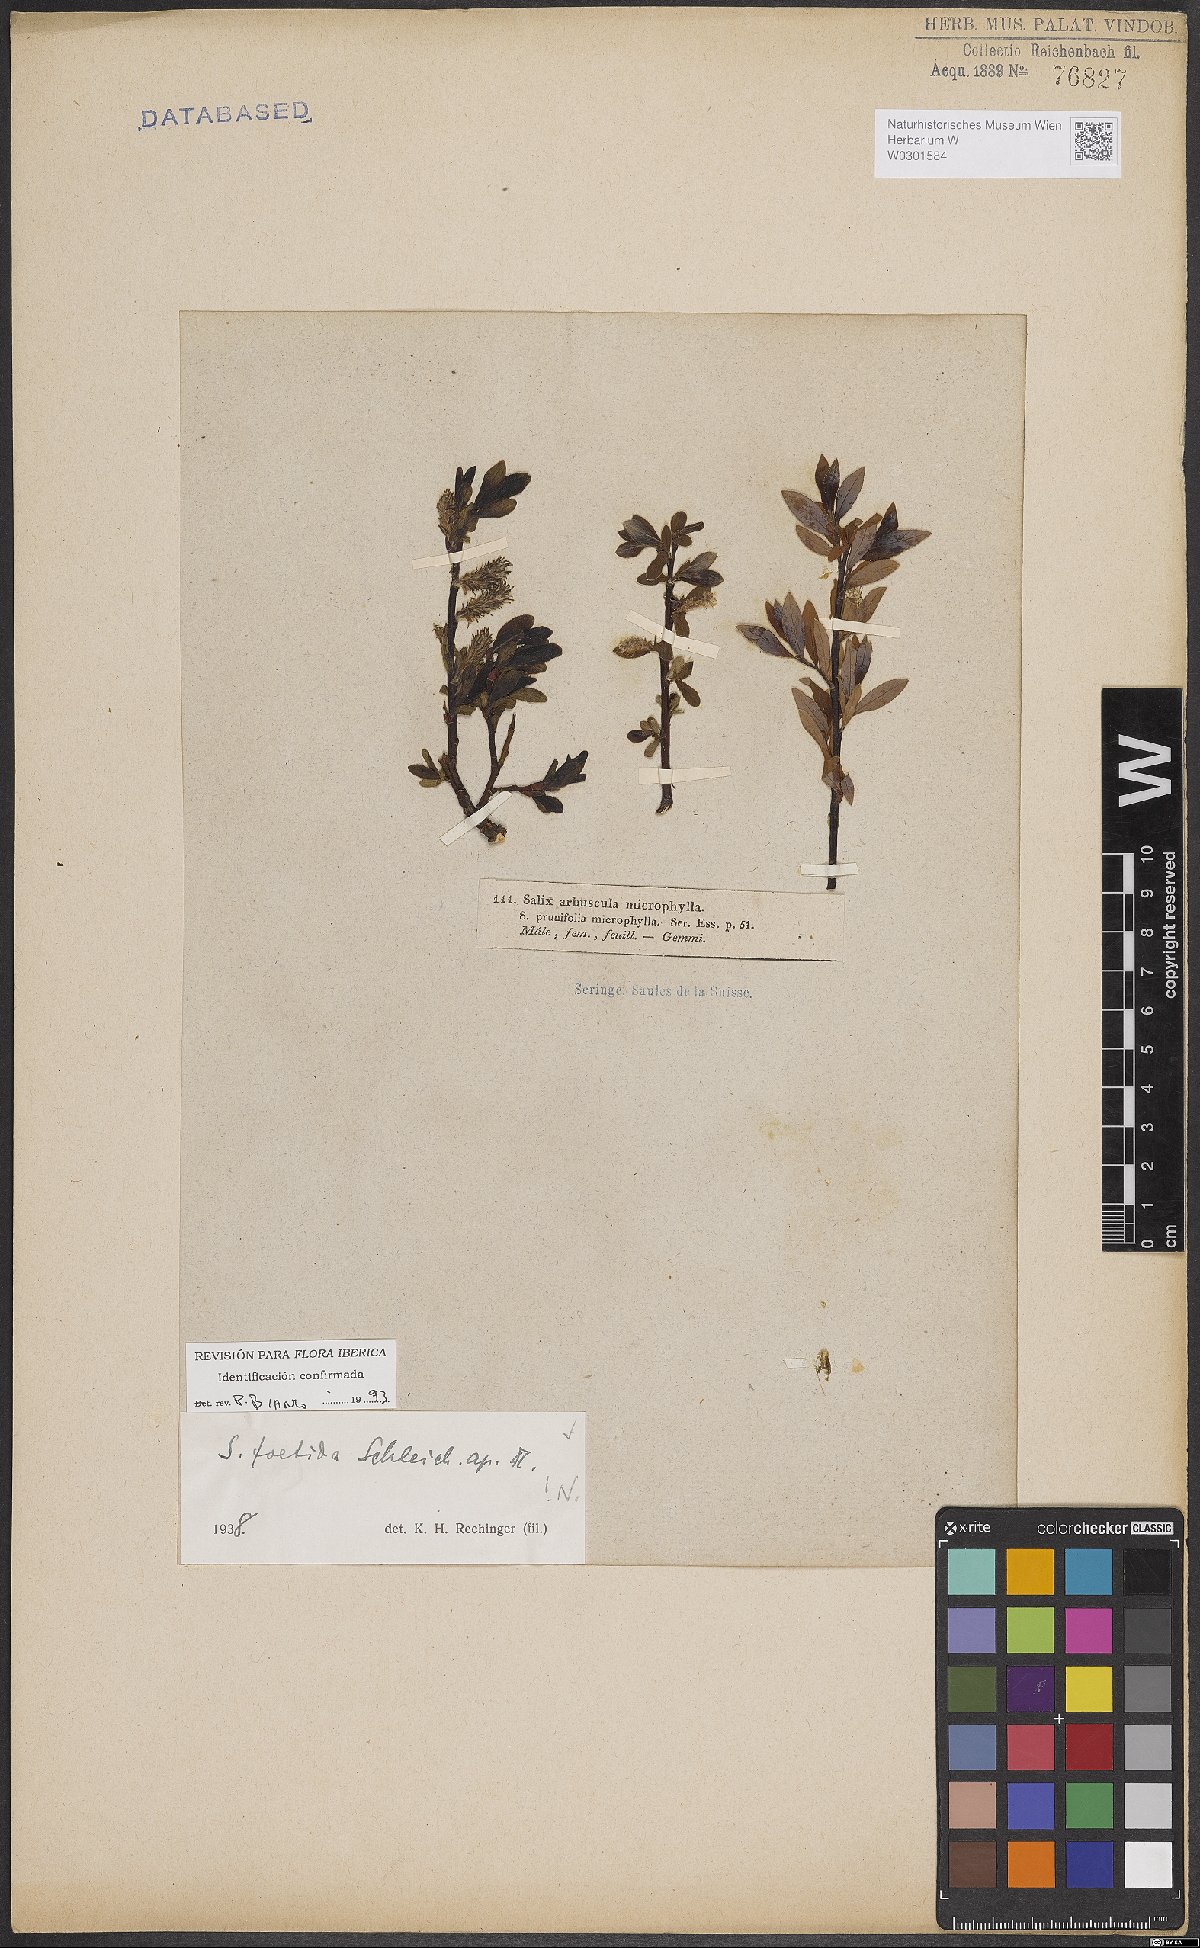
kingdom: Plantae
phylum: Tracheophyta
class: Magnoliopsida
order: Malpighiales
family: Salicaceae
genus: Salix
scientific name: Salix foetida
